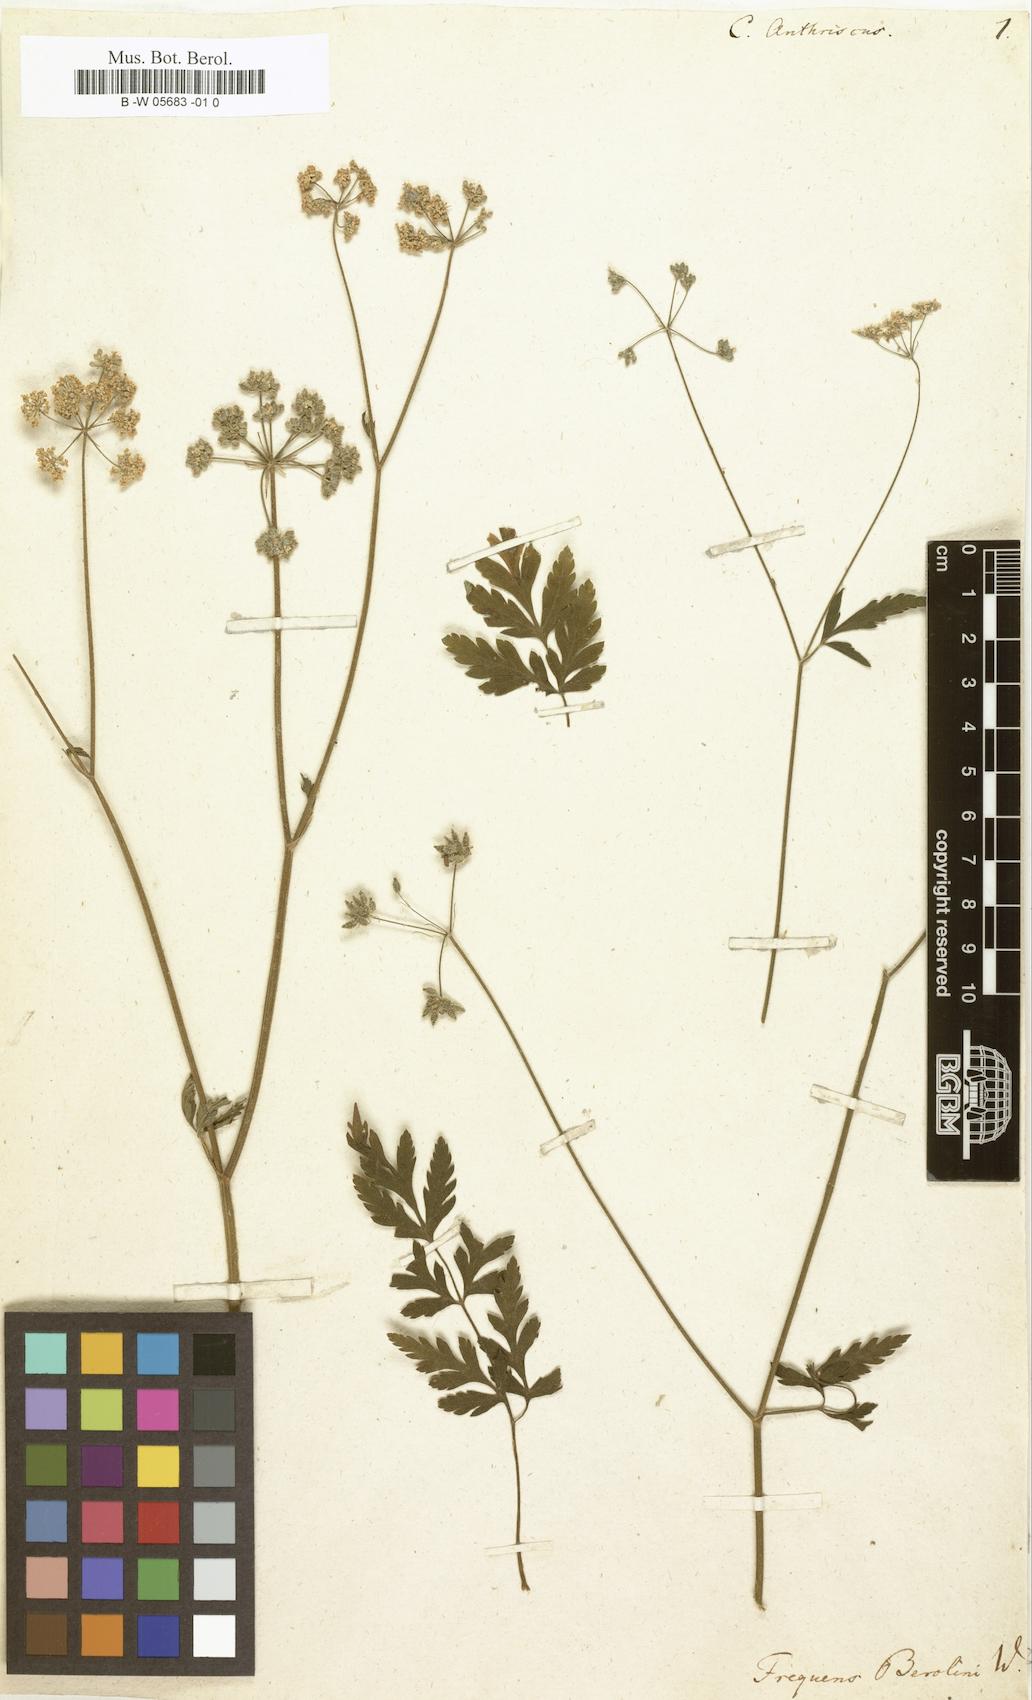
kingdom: Plantae
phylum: Tracheophyta
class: Magnoliopsida
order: Apiales
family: Apiaceae
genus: Torilis
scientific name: Torilis japonica
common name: Upright hedge-parsley
